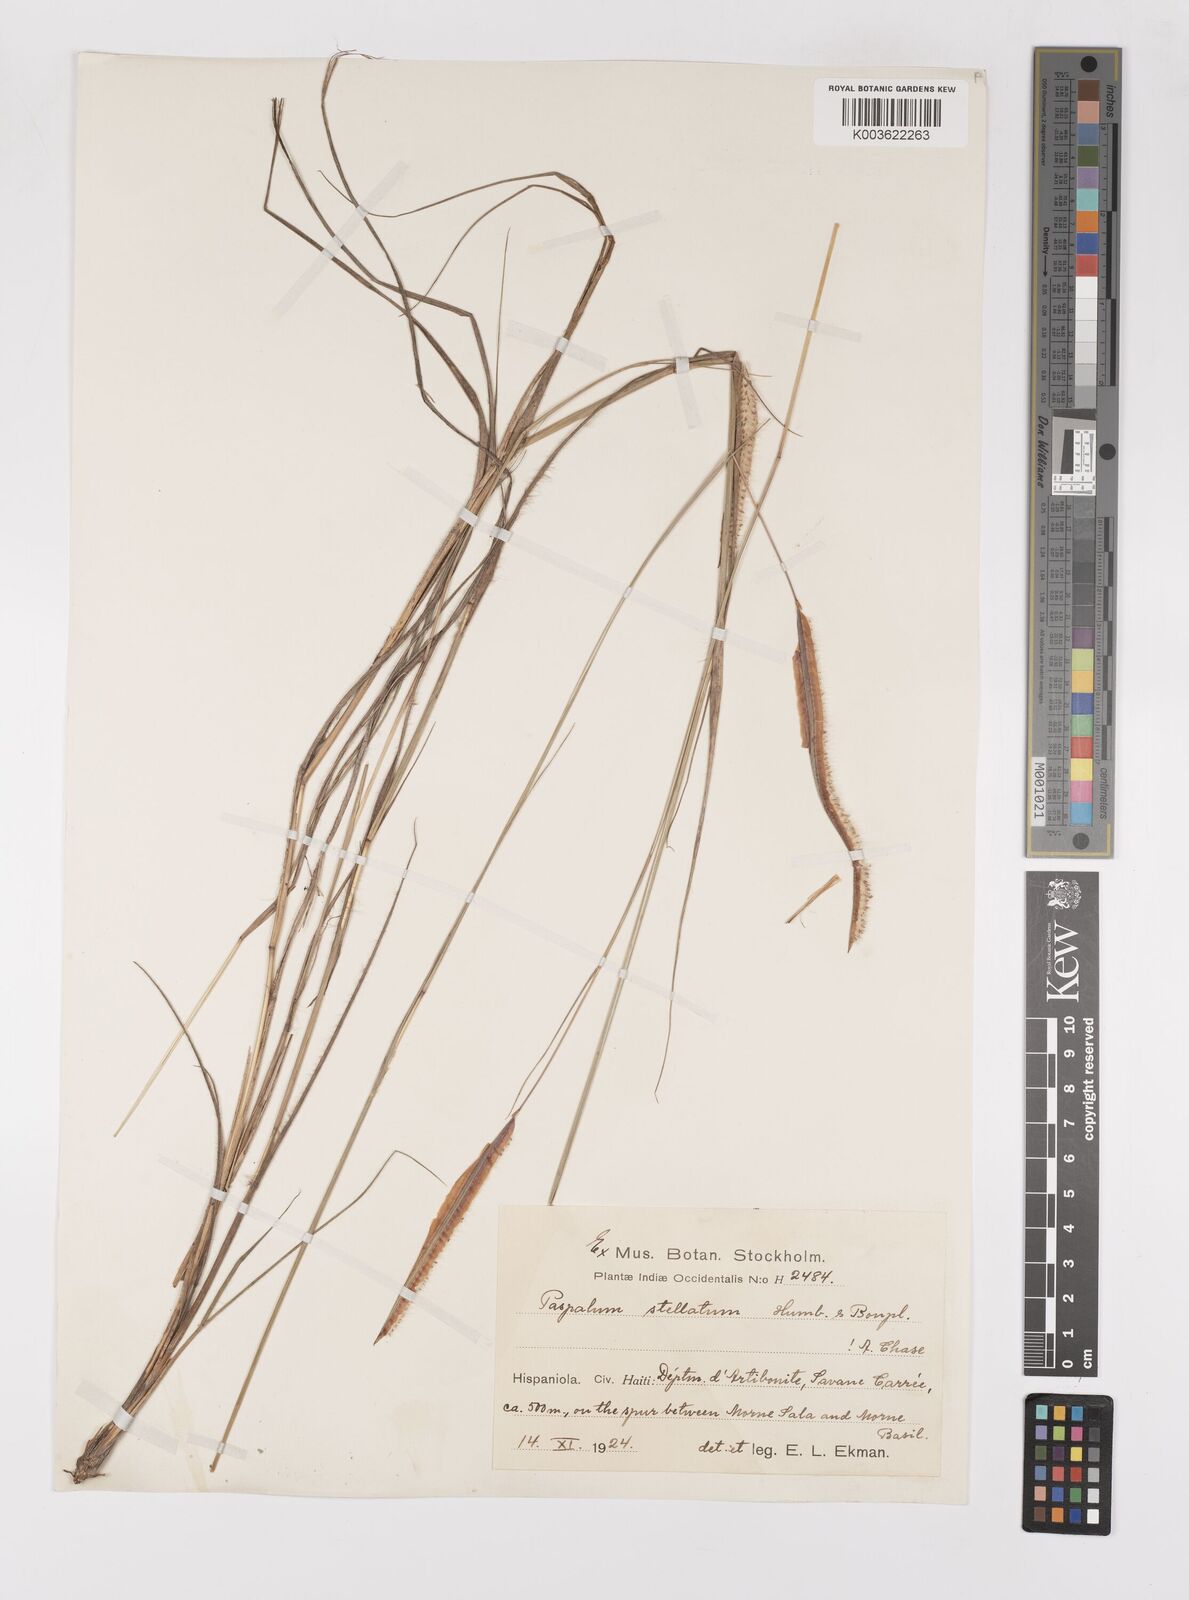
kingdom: Plantae
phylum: Tracheophyta
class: Liliopsida
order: Poales
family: Poaceae
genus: Paspalum
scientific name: Paspalum stellatum
